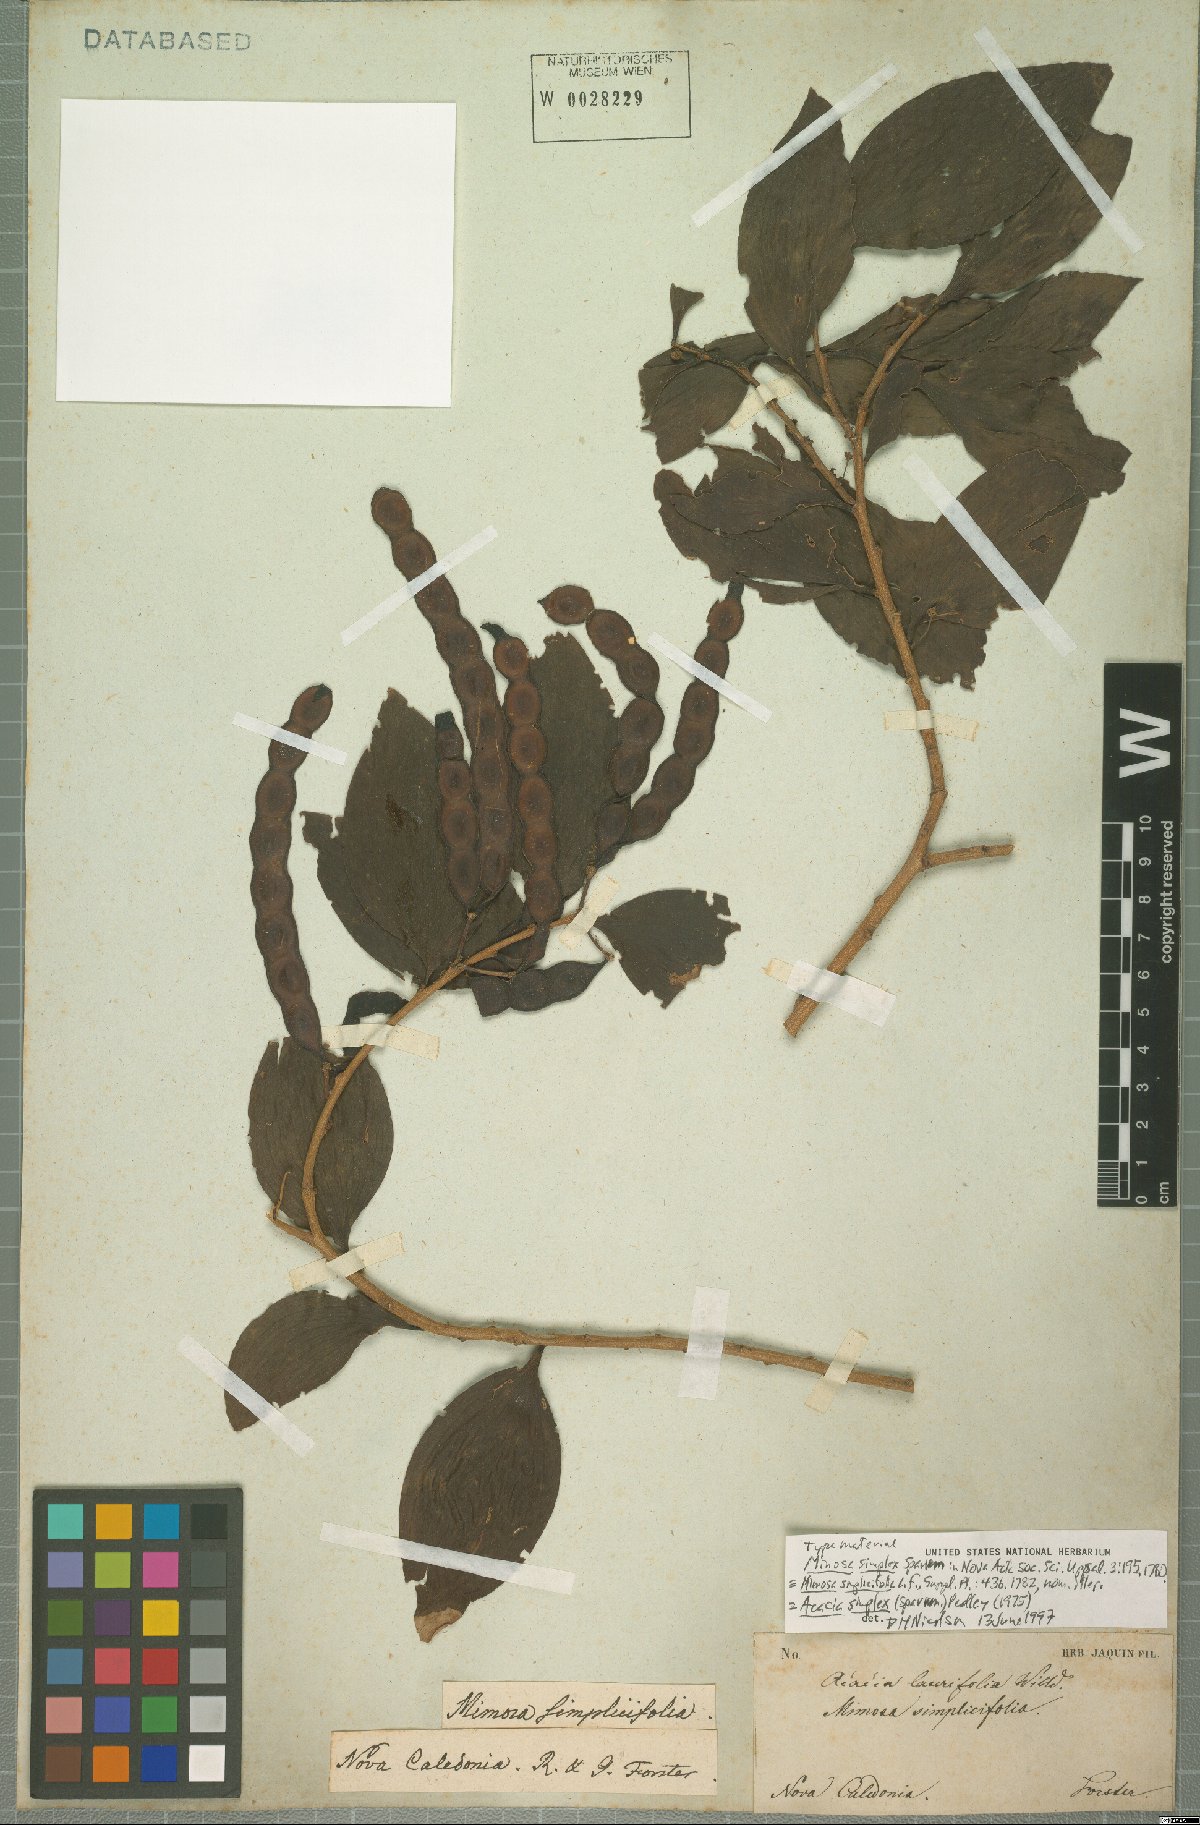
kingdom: Plantae
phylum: Tracheophyta
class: Magnoliopsida
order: Fabales
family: Fabaceae
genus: Acacia
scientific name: Acacia simplex
